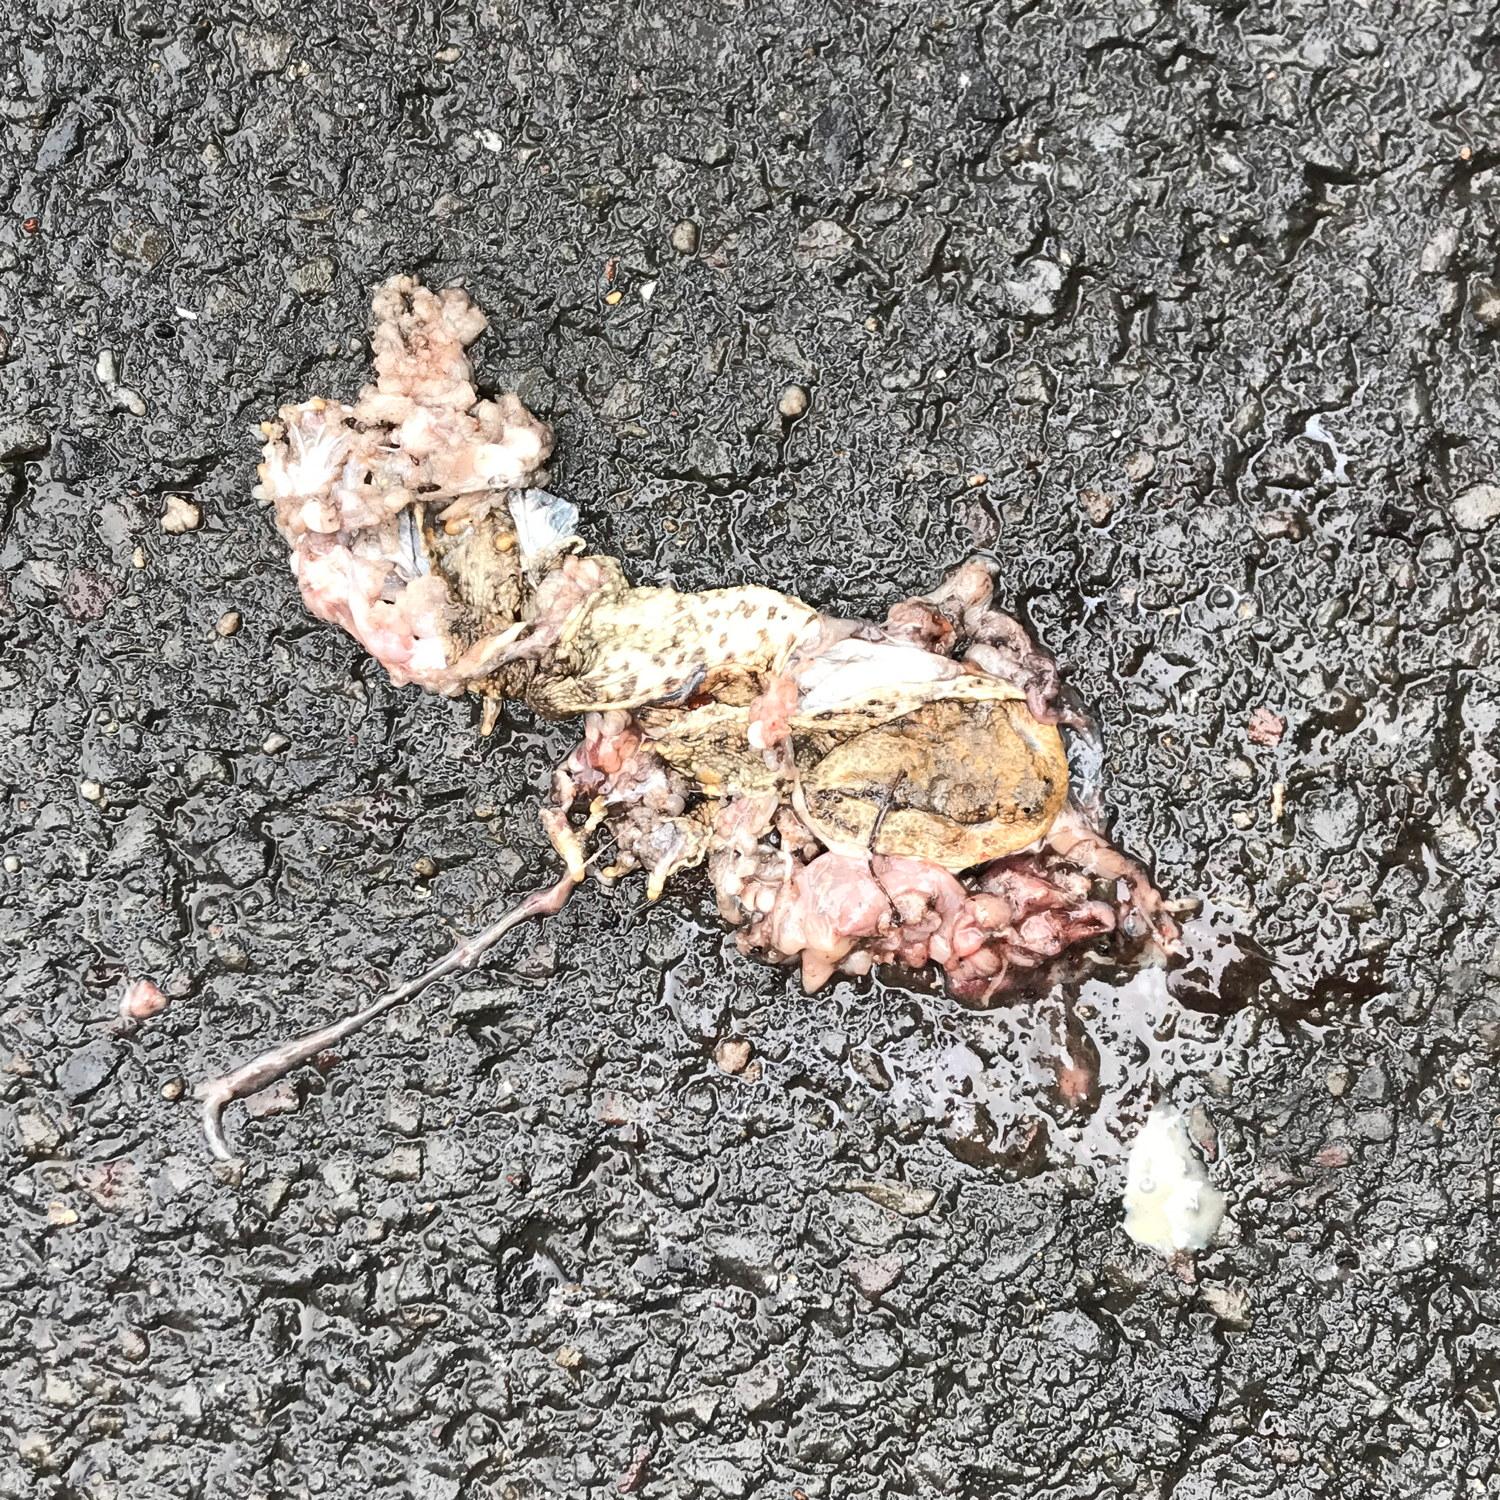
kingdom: Animalia
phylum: Chordata
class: Amphibia
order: Anura
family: Bufonidae
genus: Bufo
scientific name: Bufo bufo
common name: Common toad
